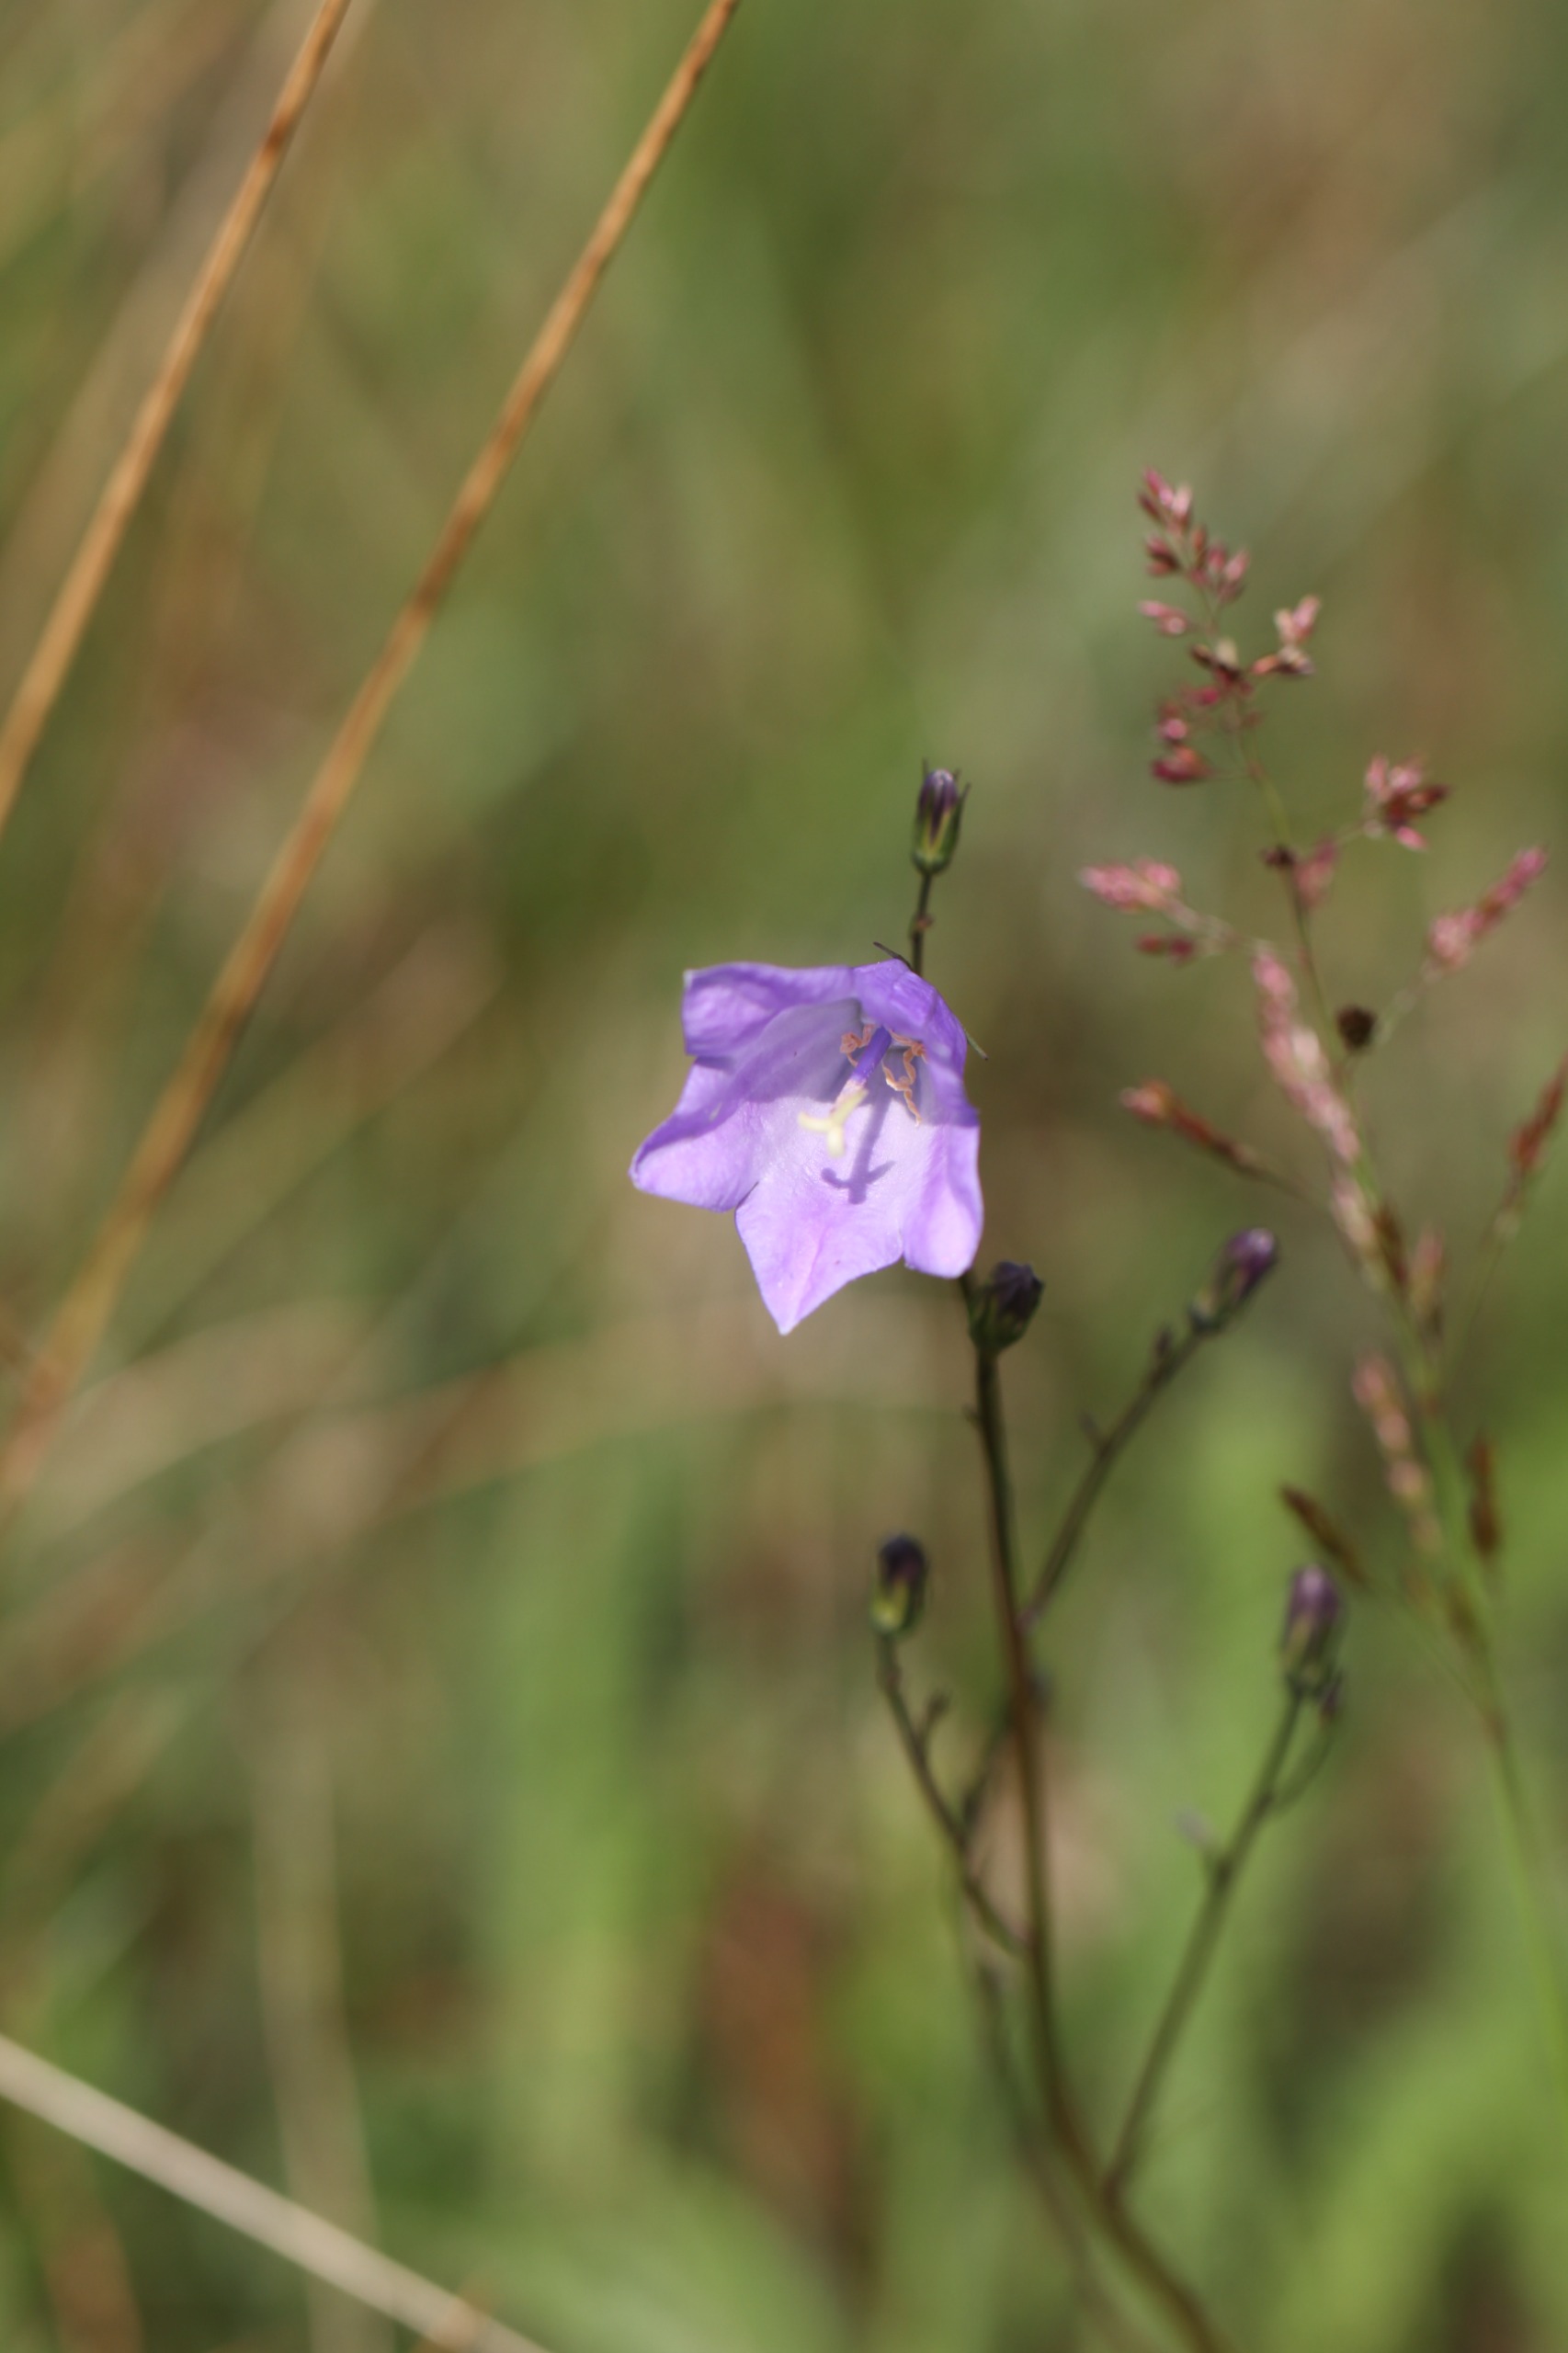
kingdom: Plantae
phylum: Tracheophyta
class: Magnoliopsida
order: Asterales
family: Campanulaceae
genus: Campanula
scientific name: Campanula rotundifolia
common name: Liden klokke
